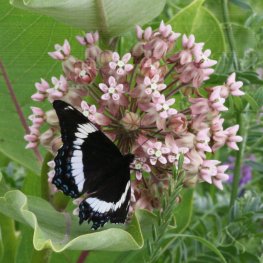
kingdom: Animalia
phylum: Arthropoda
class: Insecta
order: Lepidoptera
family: Nymphalidae
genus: Limenitis
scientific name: Limenitis arthemis
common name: Red-spotted Admiral
